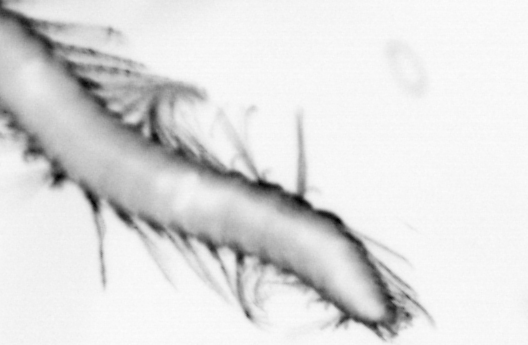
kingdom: Animalia
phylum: Annelida
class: Polychaeta
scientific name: Polychaeta
